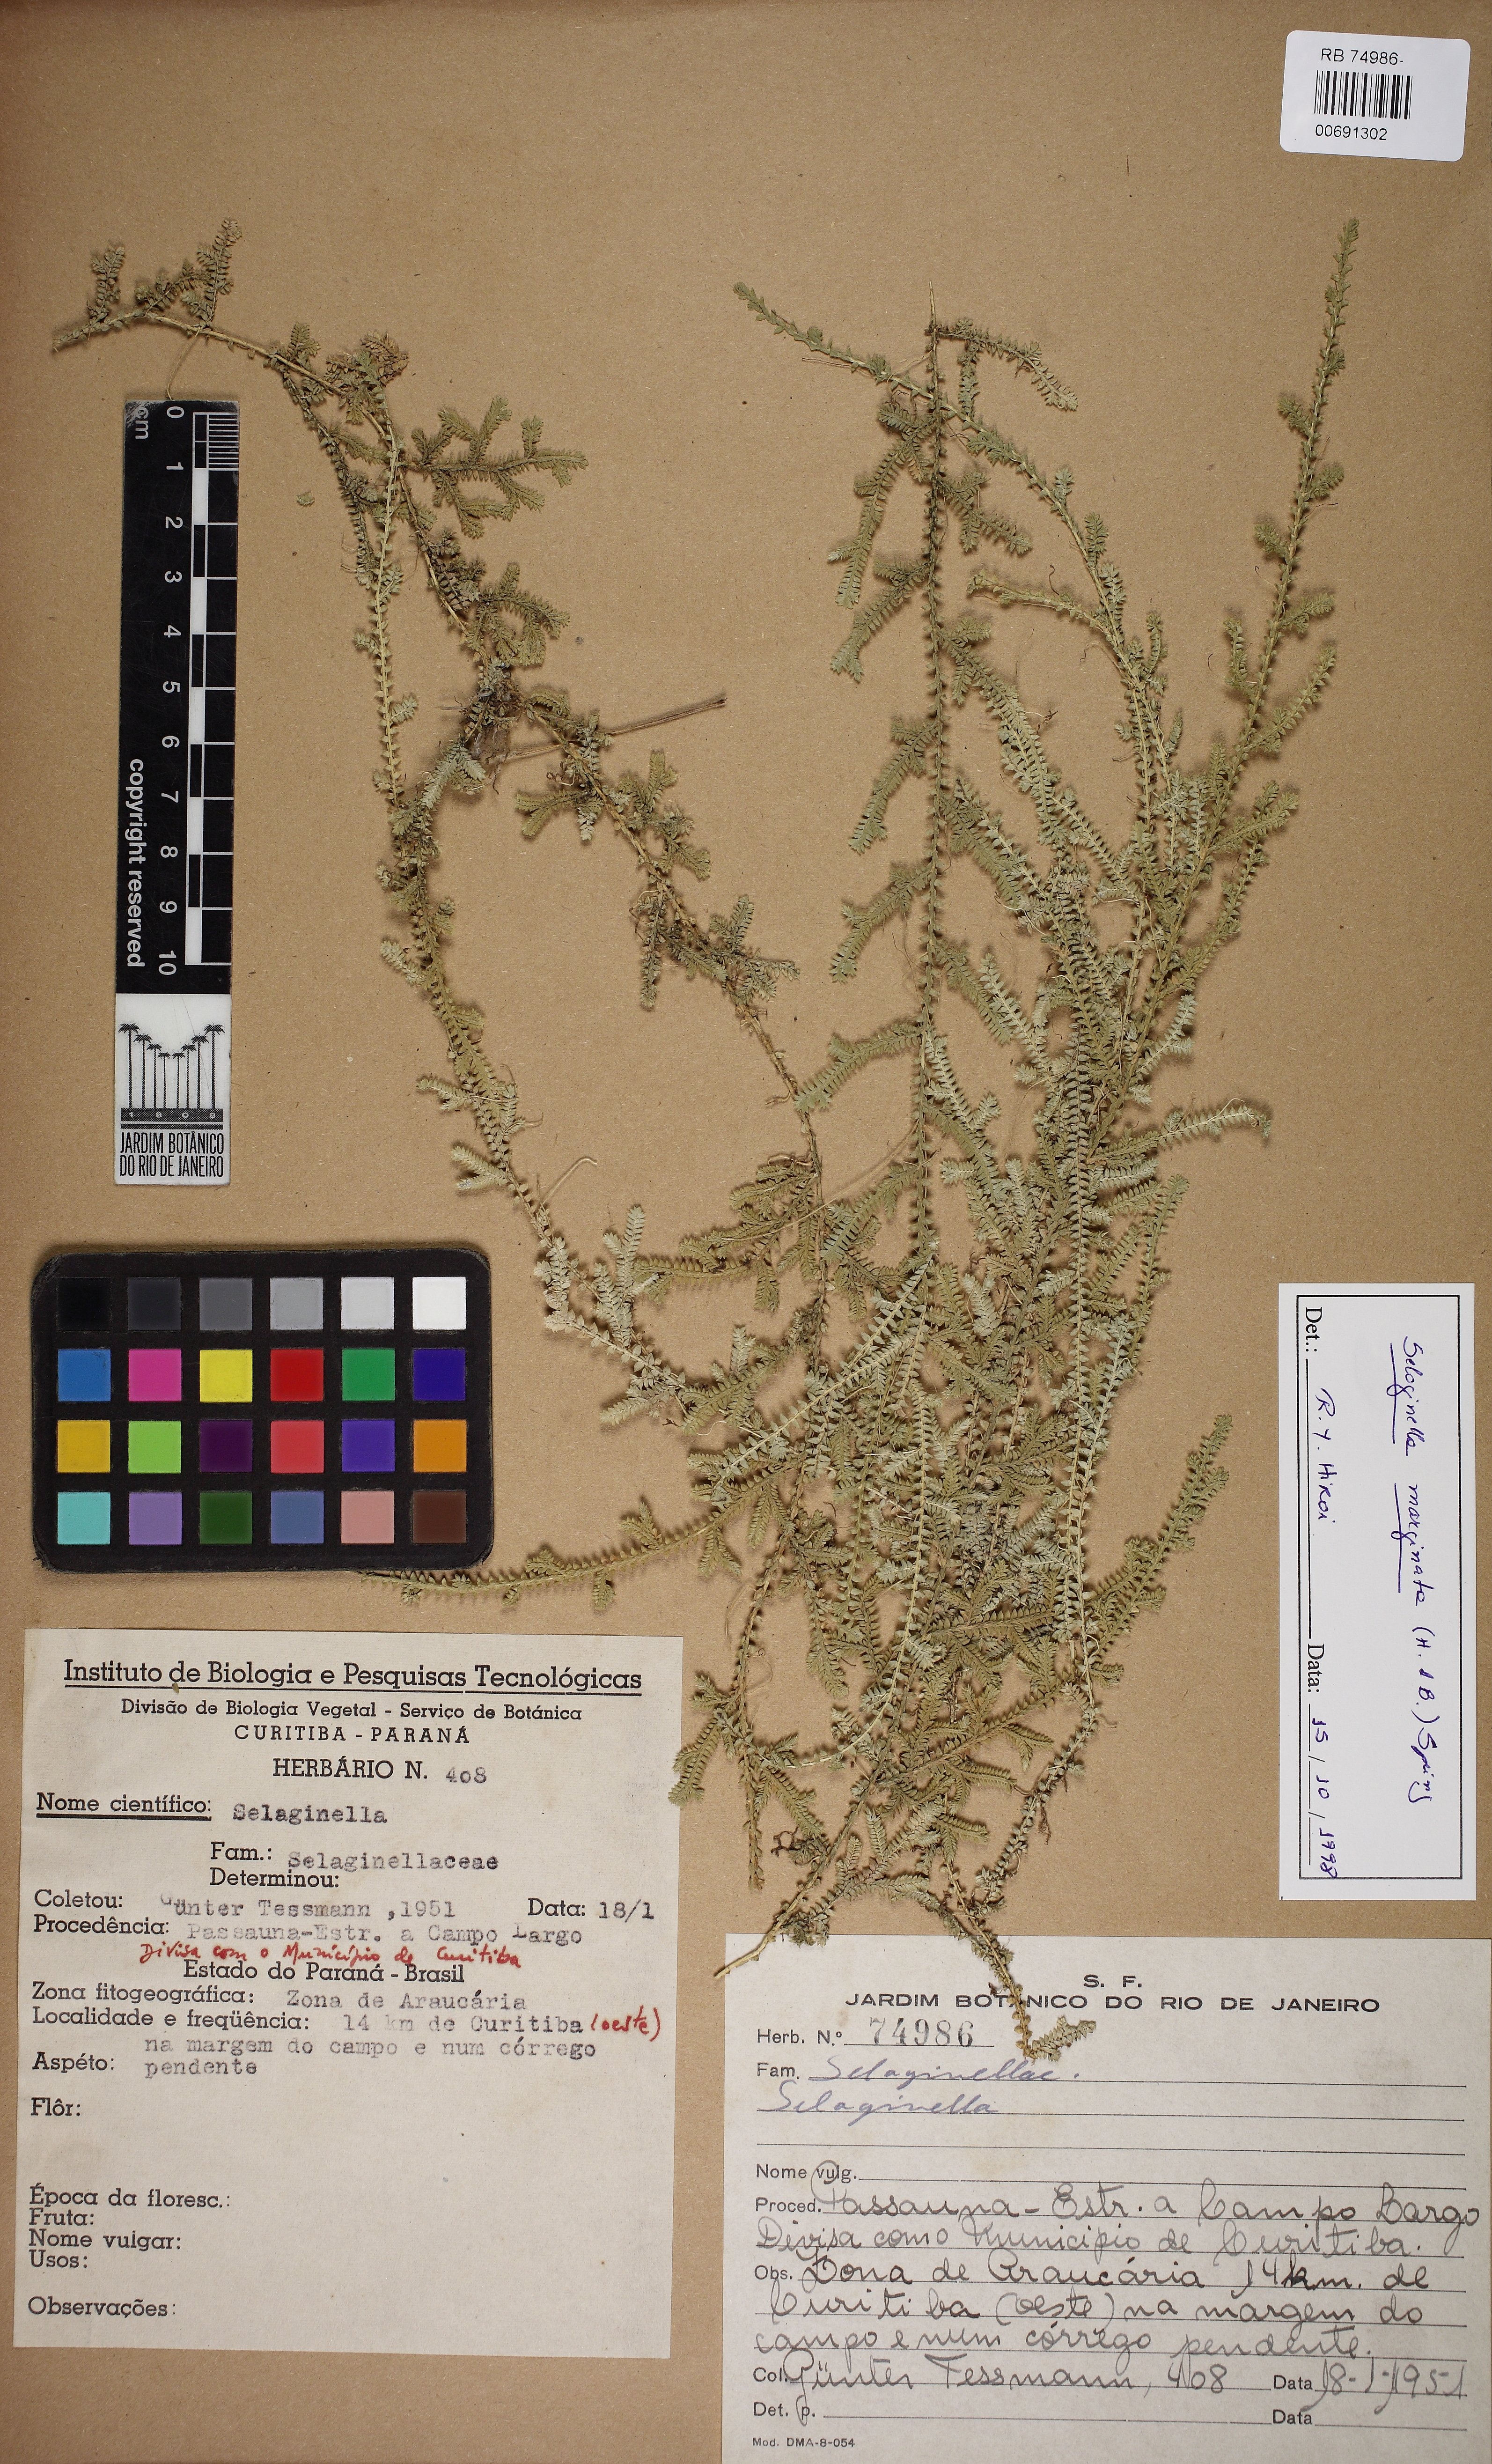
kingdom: Plantae
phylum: Tracheophyta
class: Lycopodiopsida
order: Selaginellales
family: Selaginellaceae
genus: Selaginella
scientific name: Selaginella marginata
